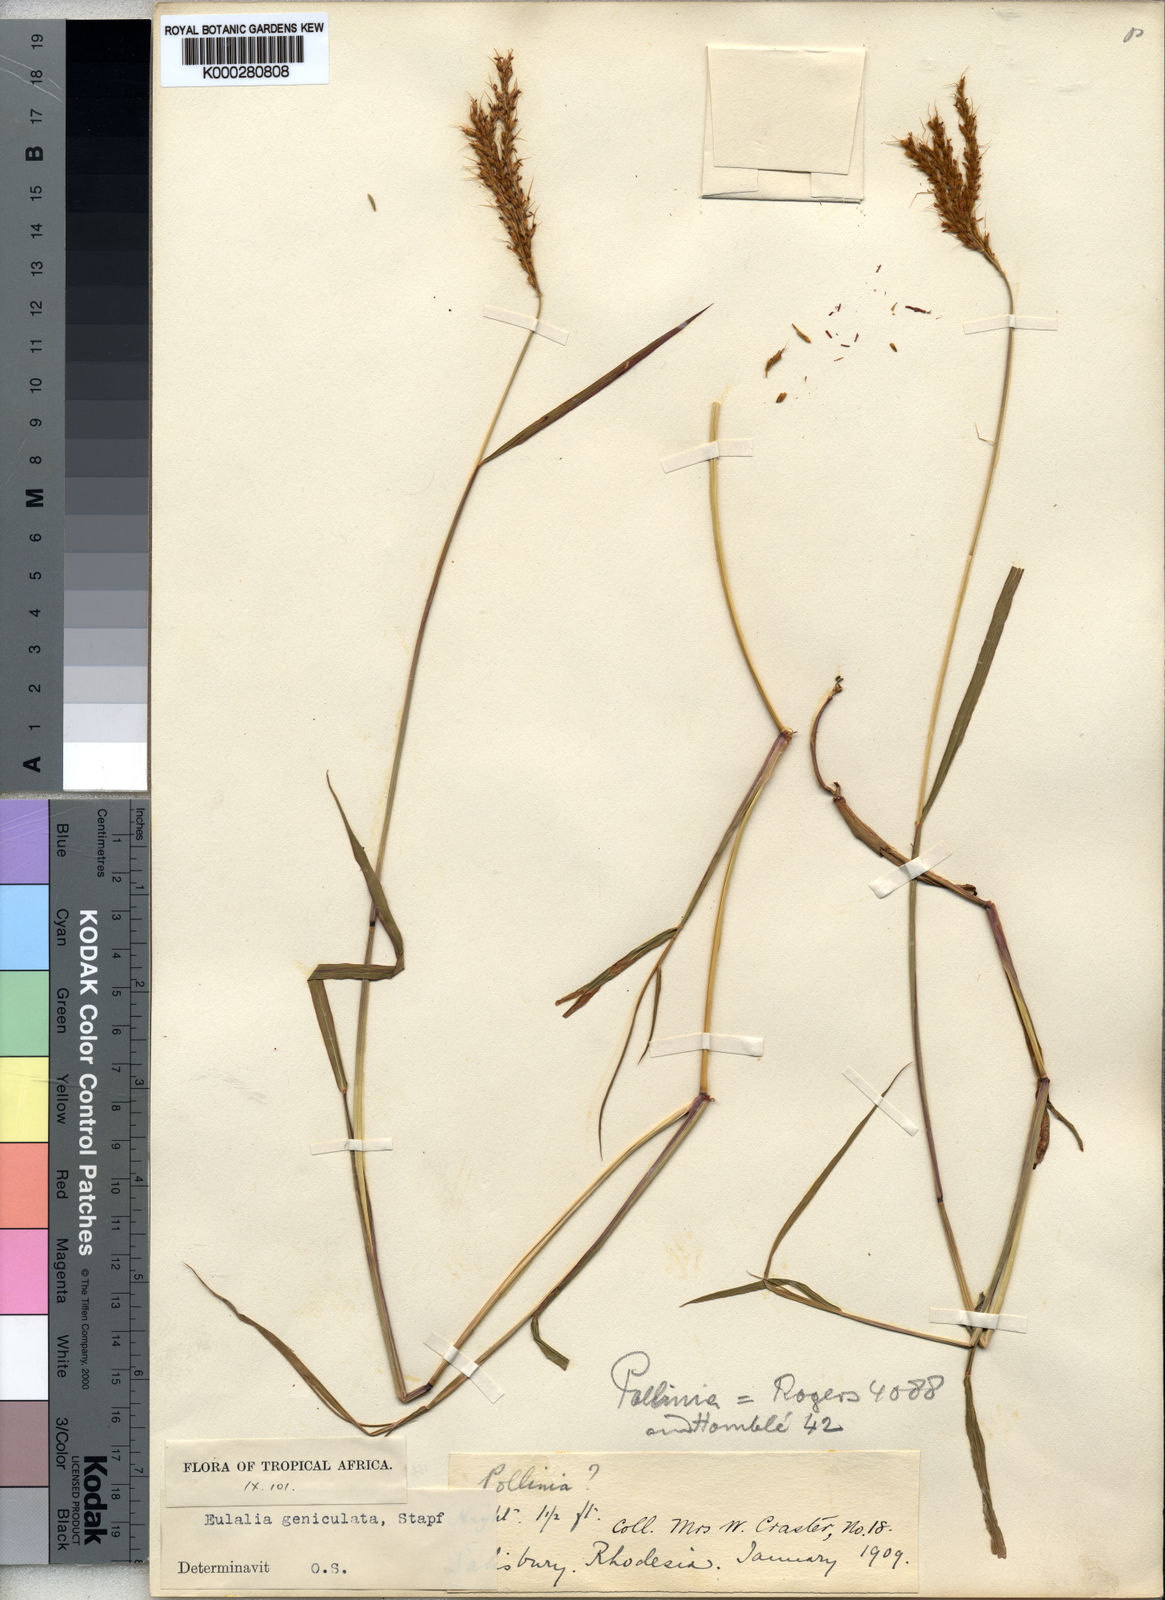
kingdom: Plantae
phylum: Tracheophyta
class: Liliopsida
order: Poales
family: Poaceae
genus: Eulalia
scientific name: Eulalia aurea
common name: Silky browntop
